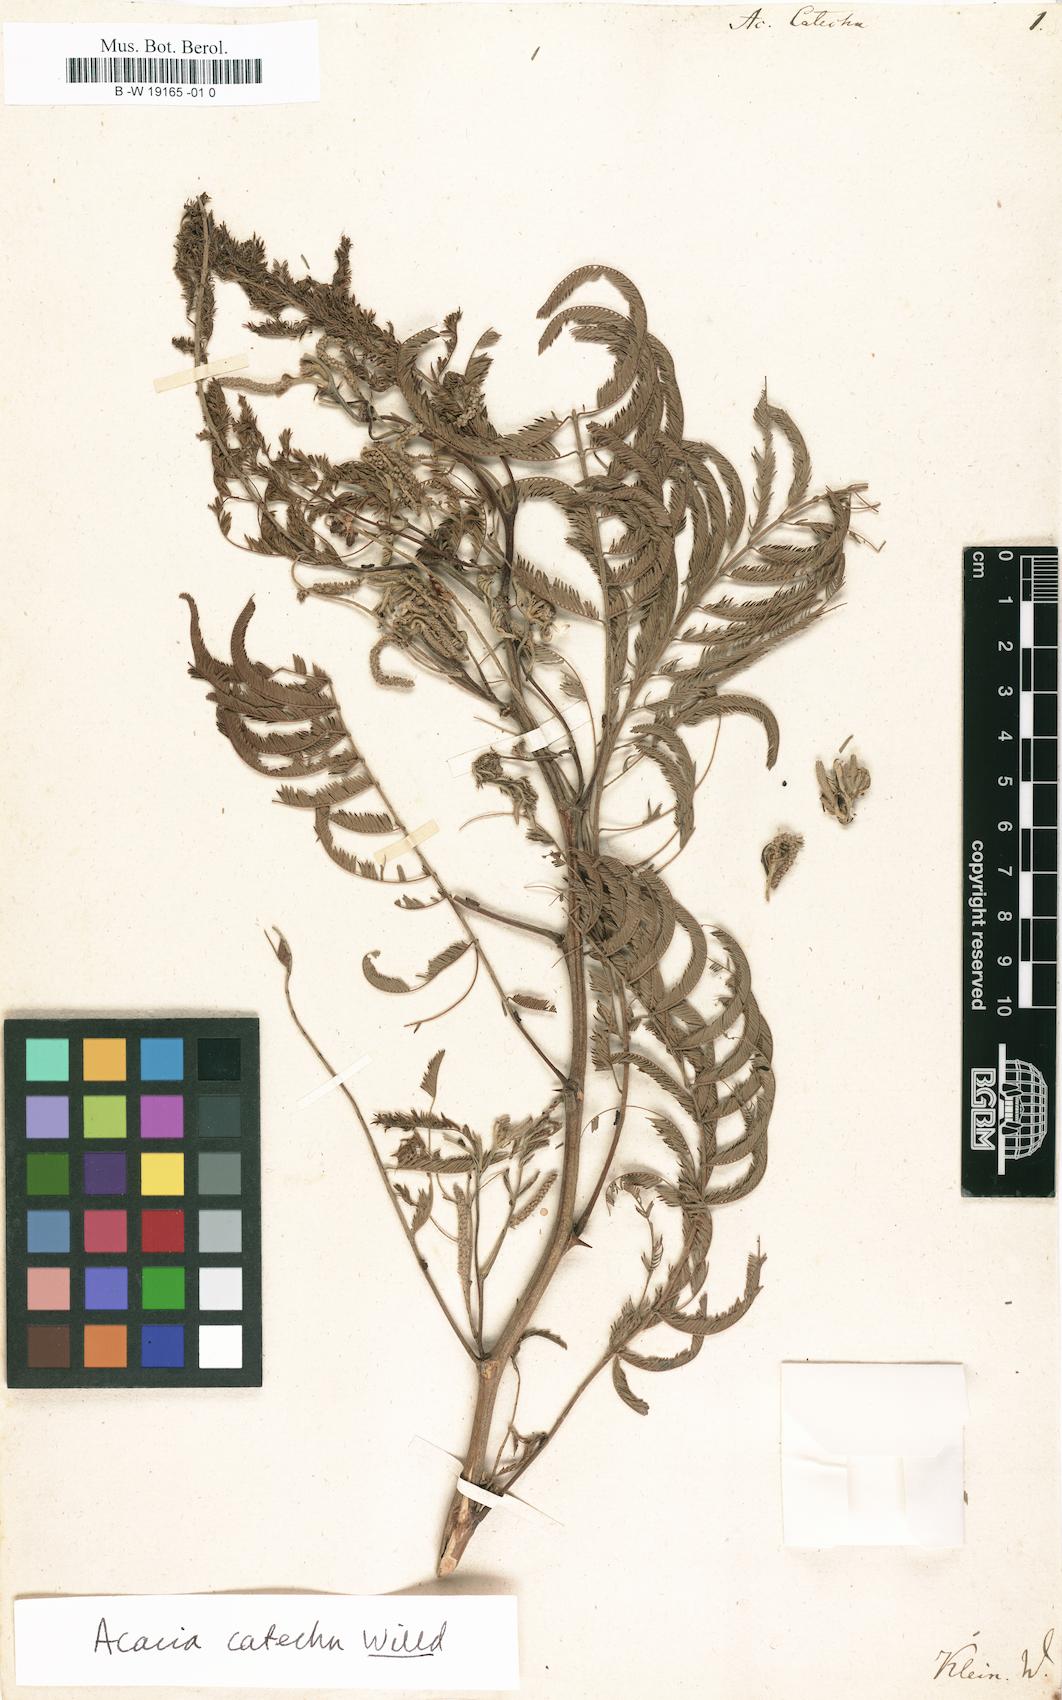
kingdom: Plantae
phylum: Tracheophyta
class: Magnoliopsida
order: Fabales
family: Fabaceae
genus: Senegalia
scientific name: Senegalia catechu
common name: Black cutch
